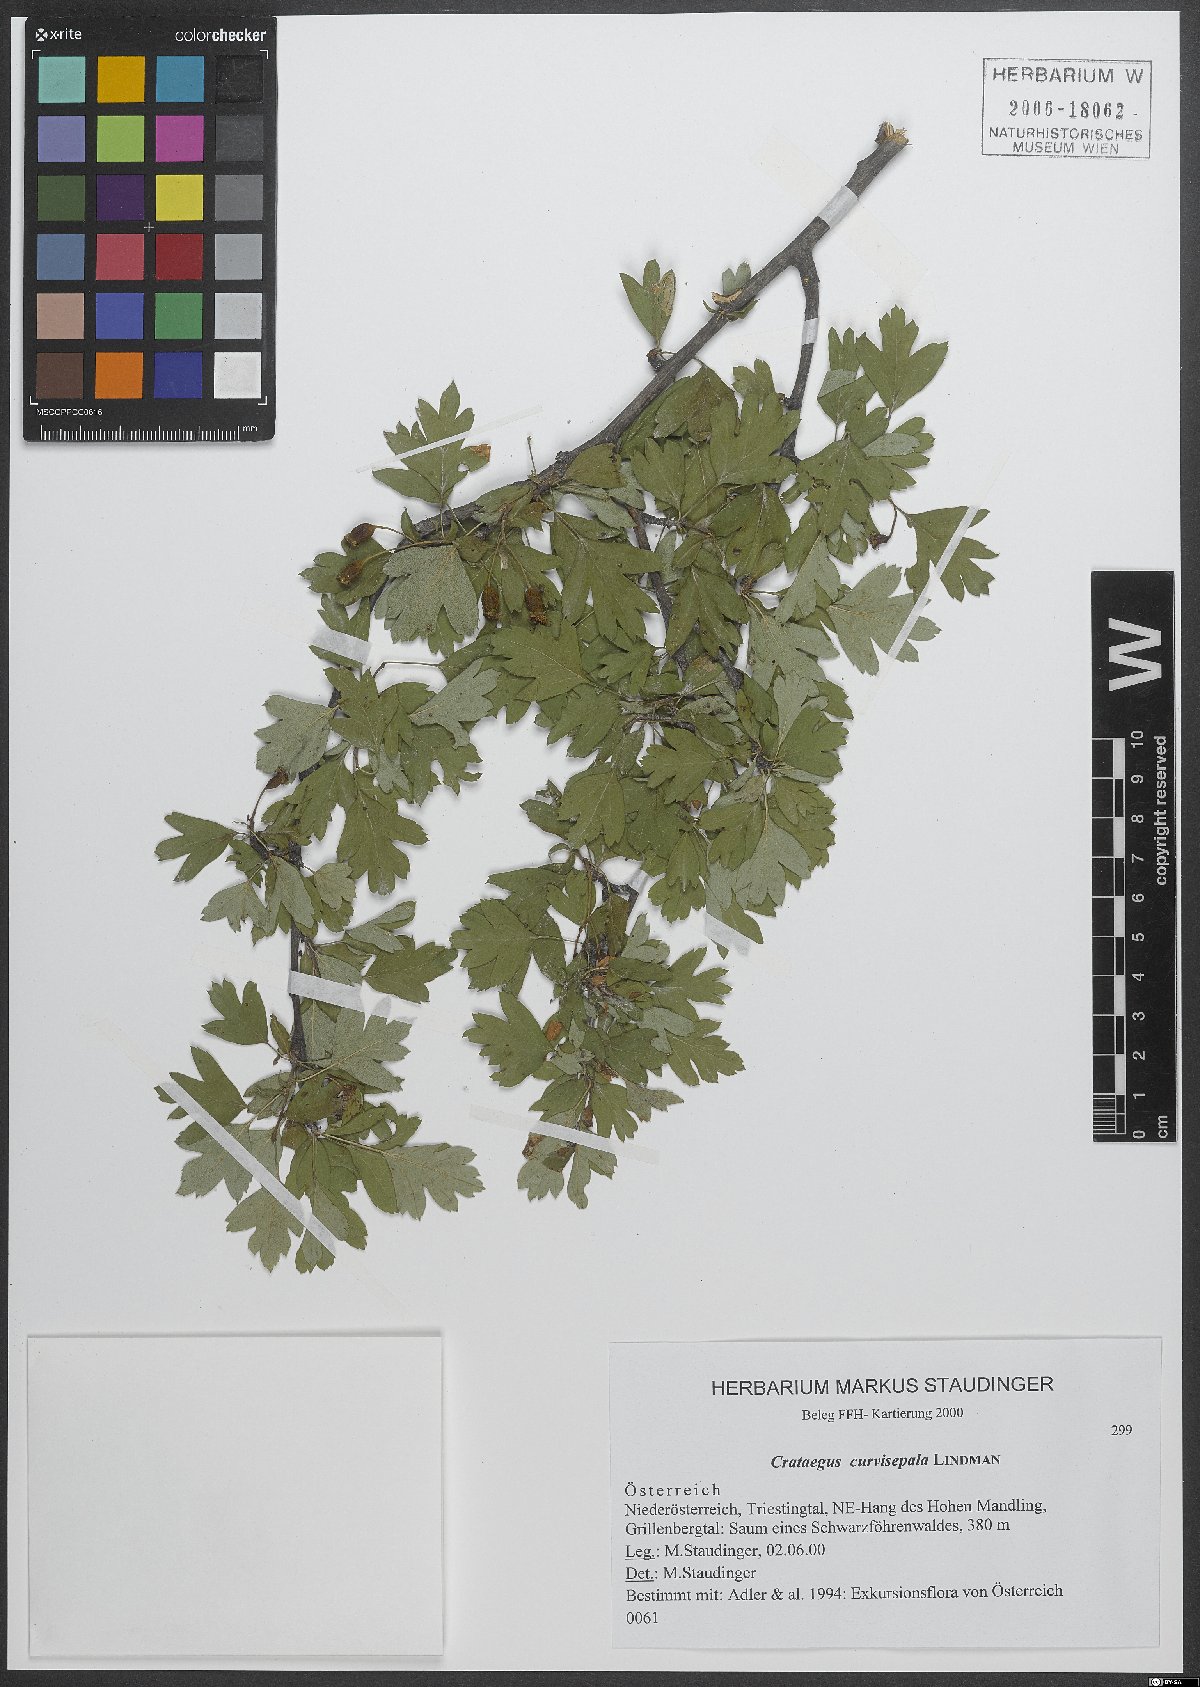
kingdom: Plantae
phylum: Tracheophyta
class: Magnoliopsida
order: Rosales
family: Rosaceae
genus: Crataegus
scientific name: Crataegus praemonticola
